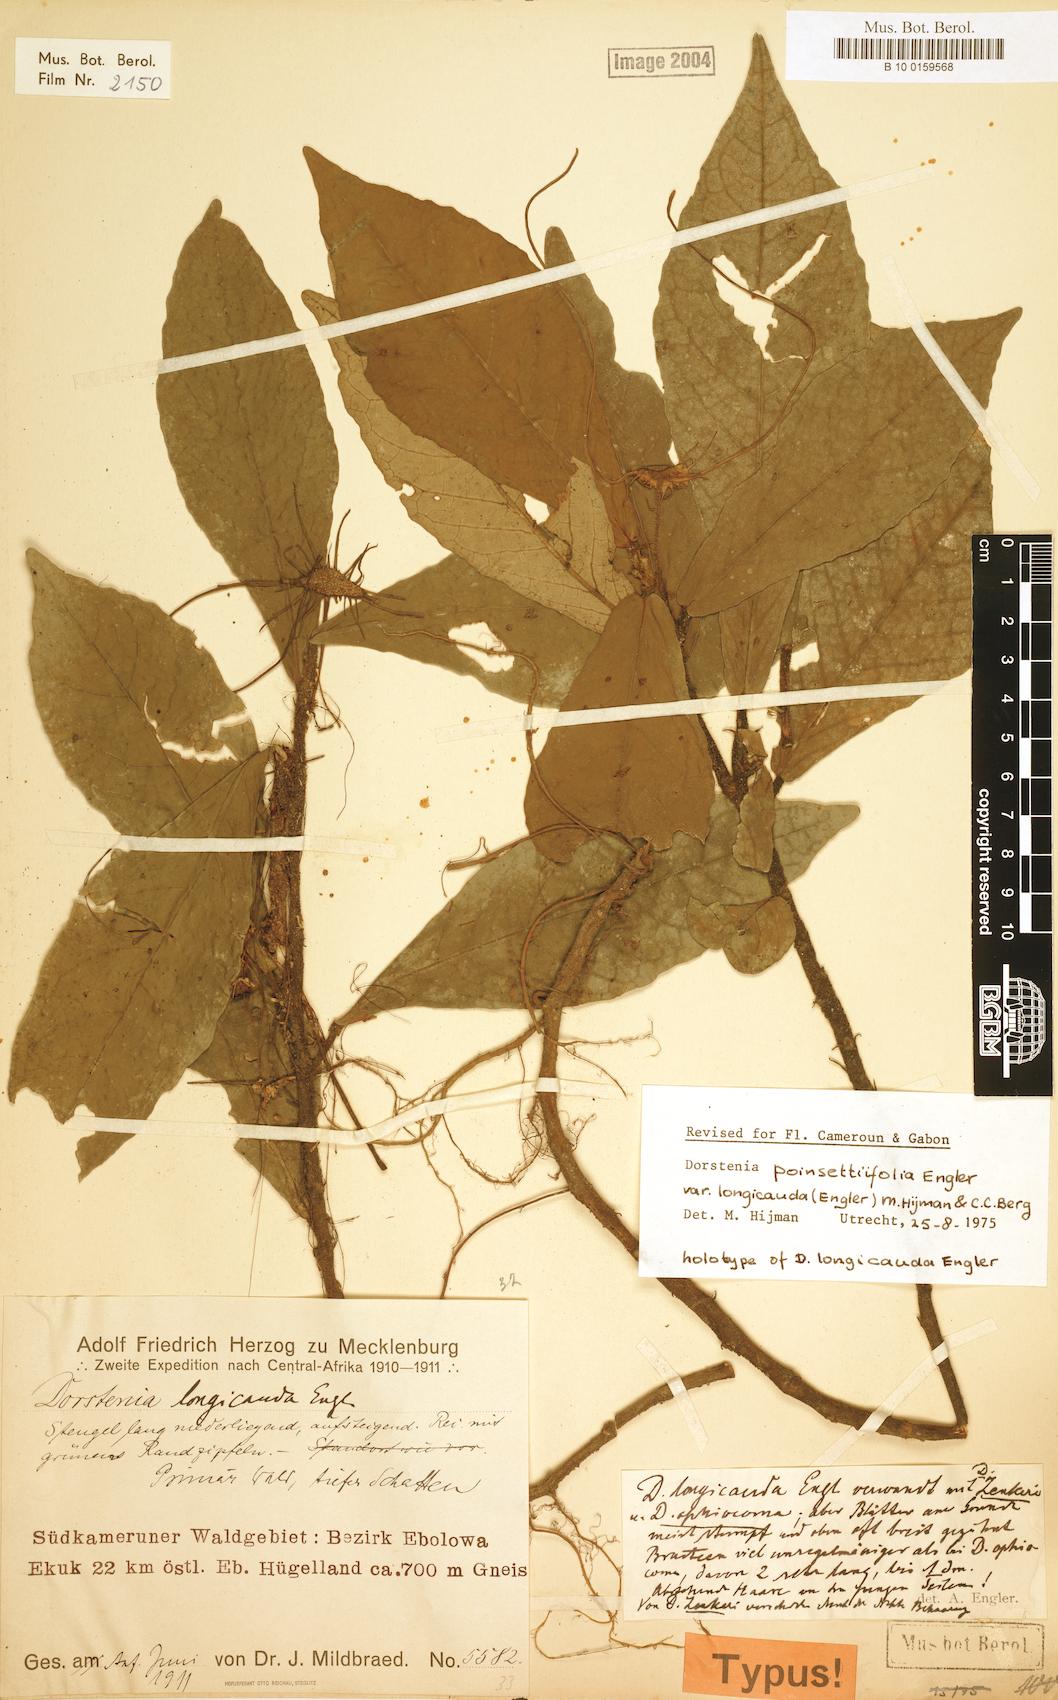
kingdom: Plantae
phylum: Tracheophyta
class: Magnoliopsida
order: Rosales
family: Moraceae
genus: Dorstenia
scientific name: Dorstenia poinsettifolia
